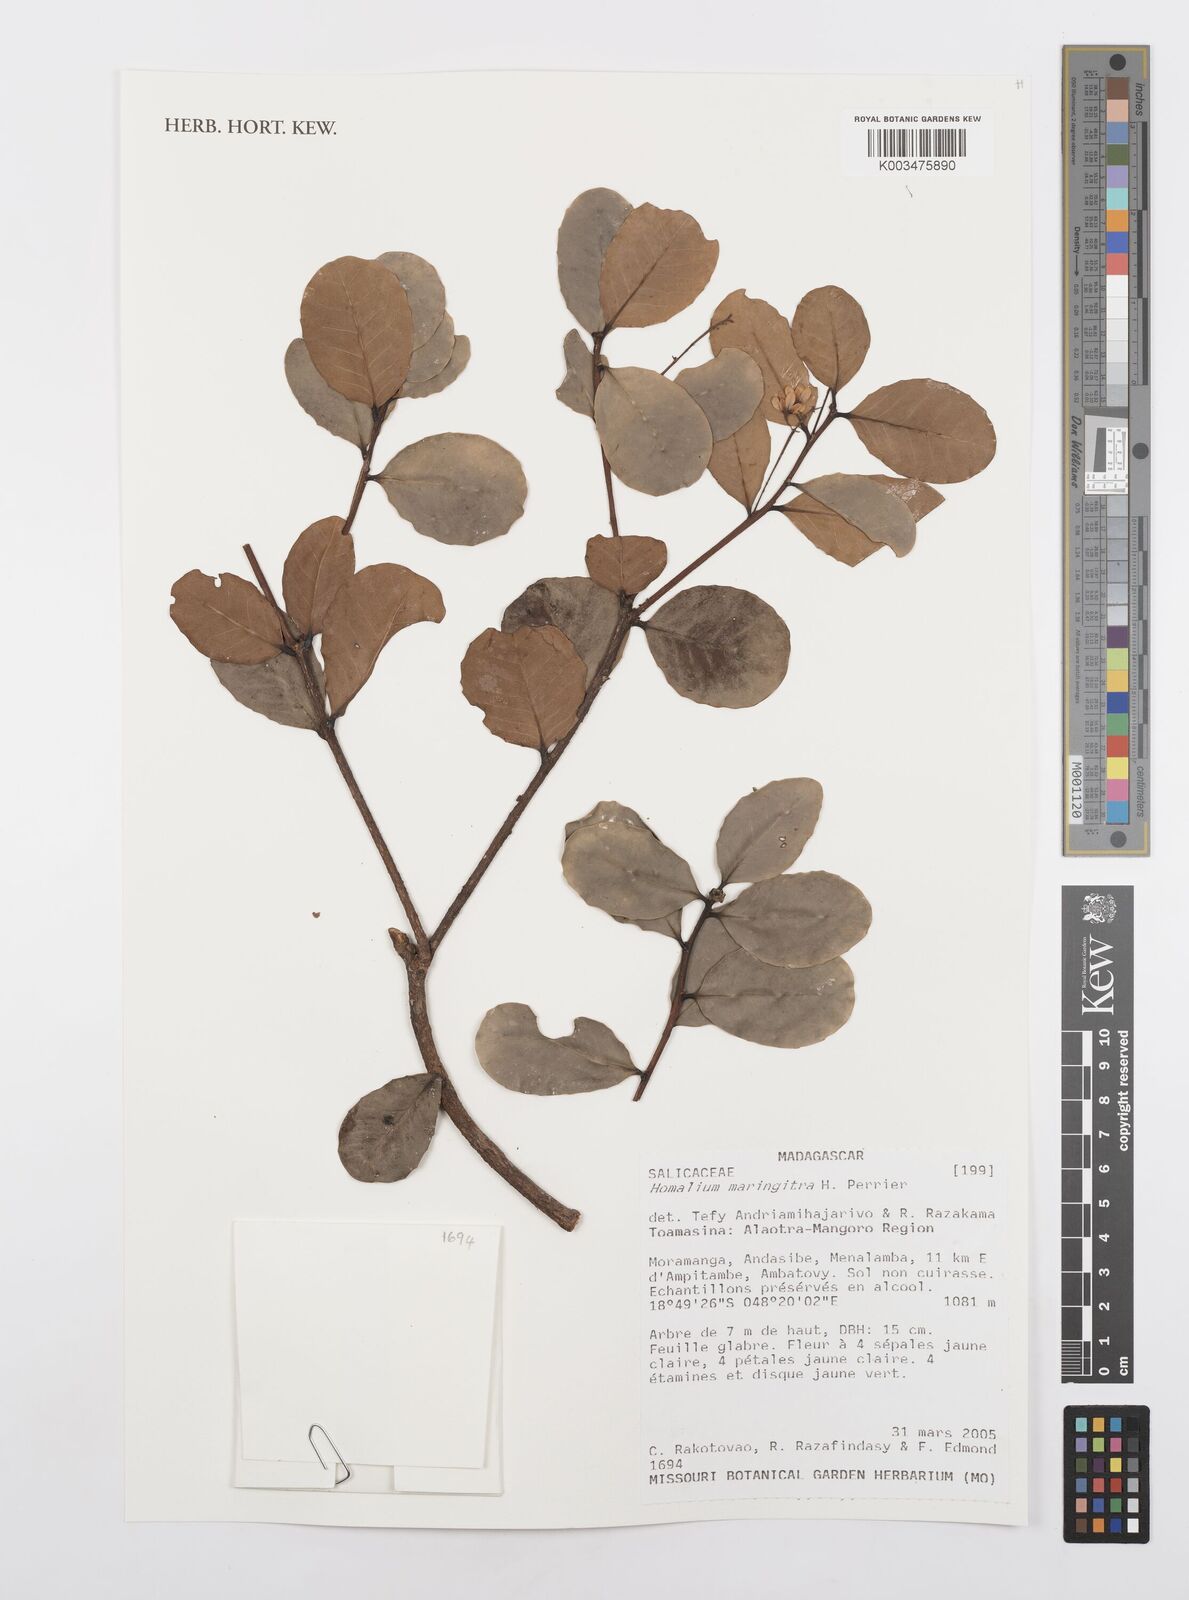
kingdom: Plantae
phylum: Tracheophyta
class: Magnoliopsida
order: Malpighiales
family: Salicaceae
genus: Homalium
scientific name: Homalium maringitra
